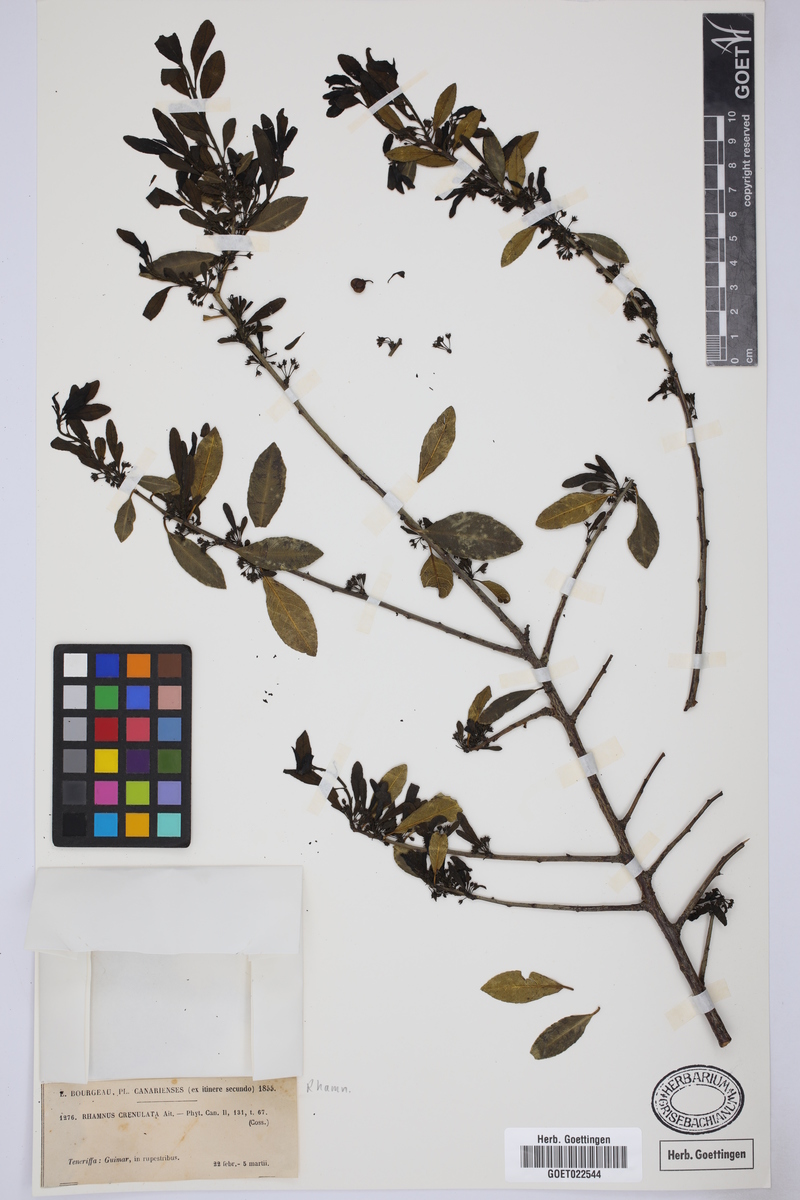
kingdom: Plantae
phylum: Tracheophyta
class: Magnoliopsida
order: Rosales
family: Rhamnaceae
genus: Rhamnus
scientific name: Rhamnus crenulata
